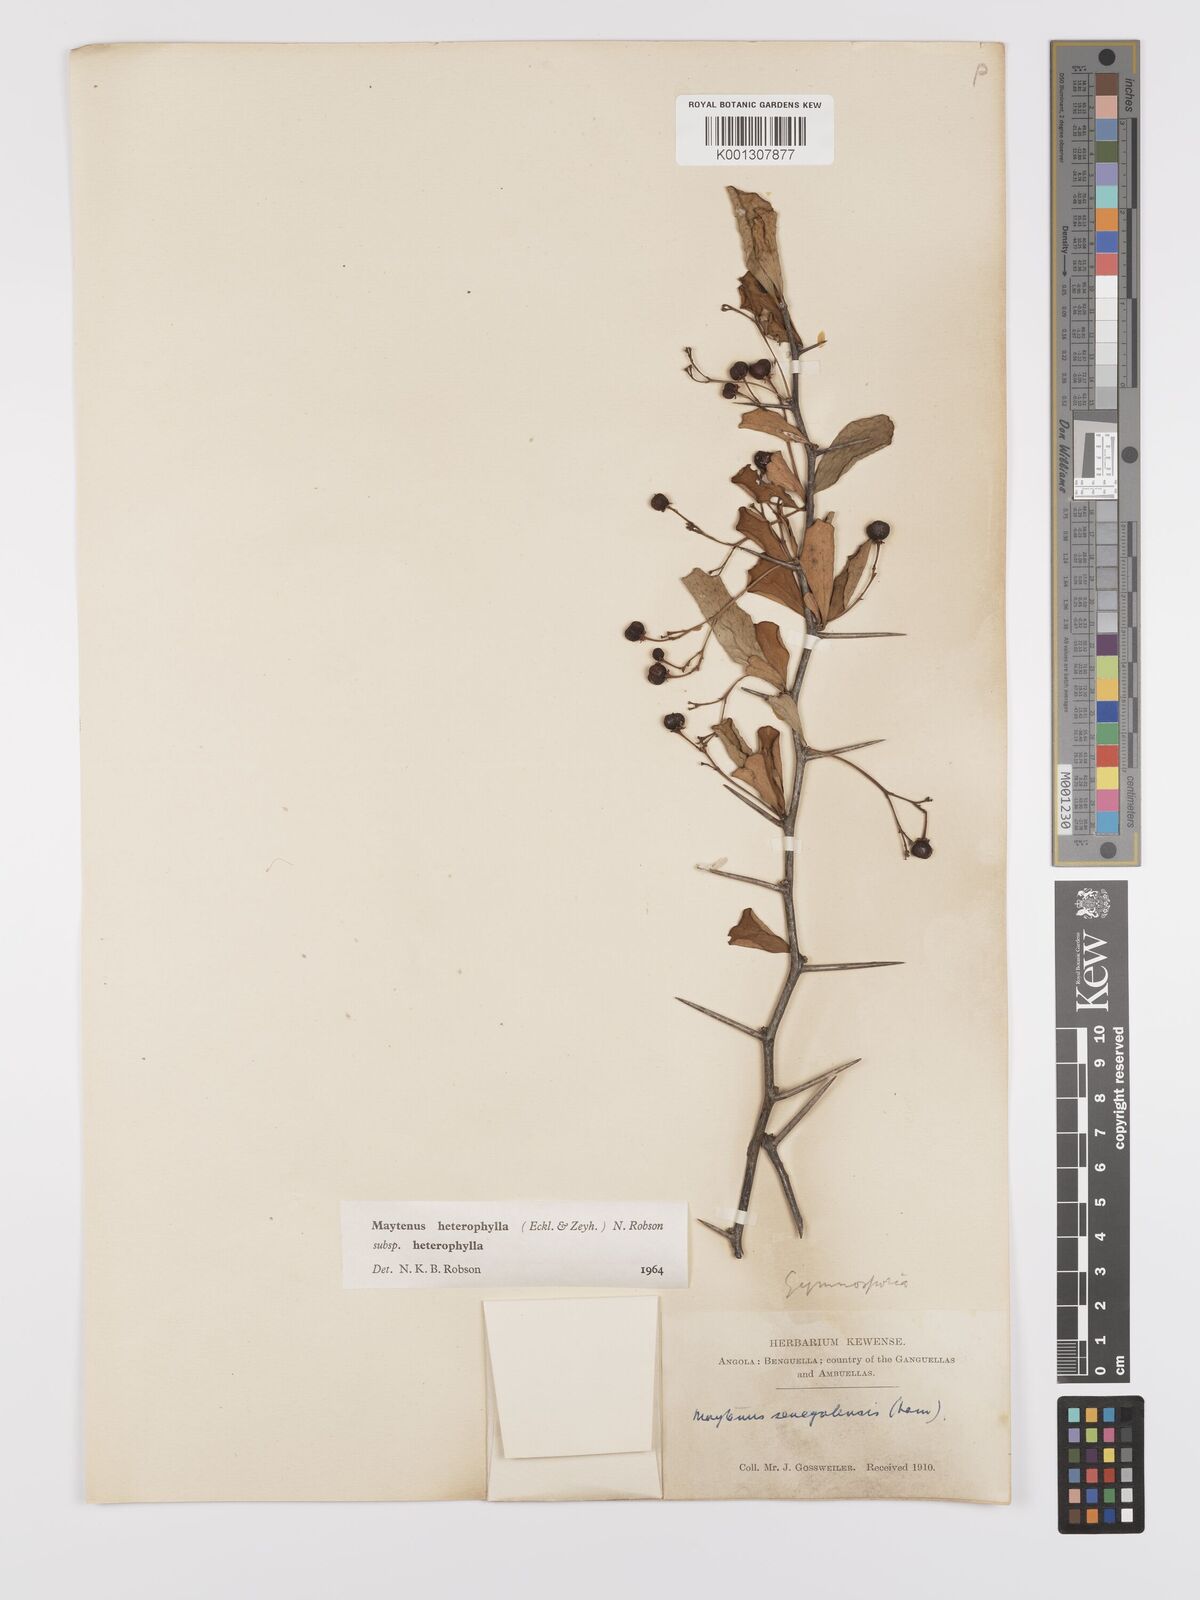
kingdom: Plantae
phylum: Tracheophyta
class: Magnoliopsida
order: Celastrales
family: Celastraceae
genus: Gymnosporia
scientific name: Gymnosporia heterophylla
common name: Angle-stem spikethorn
